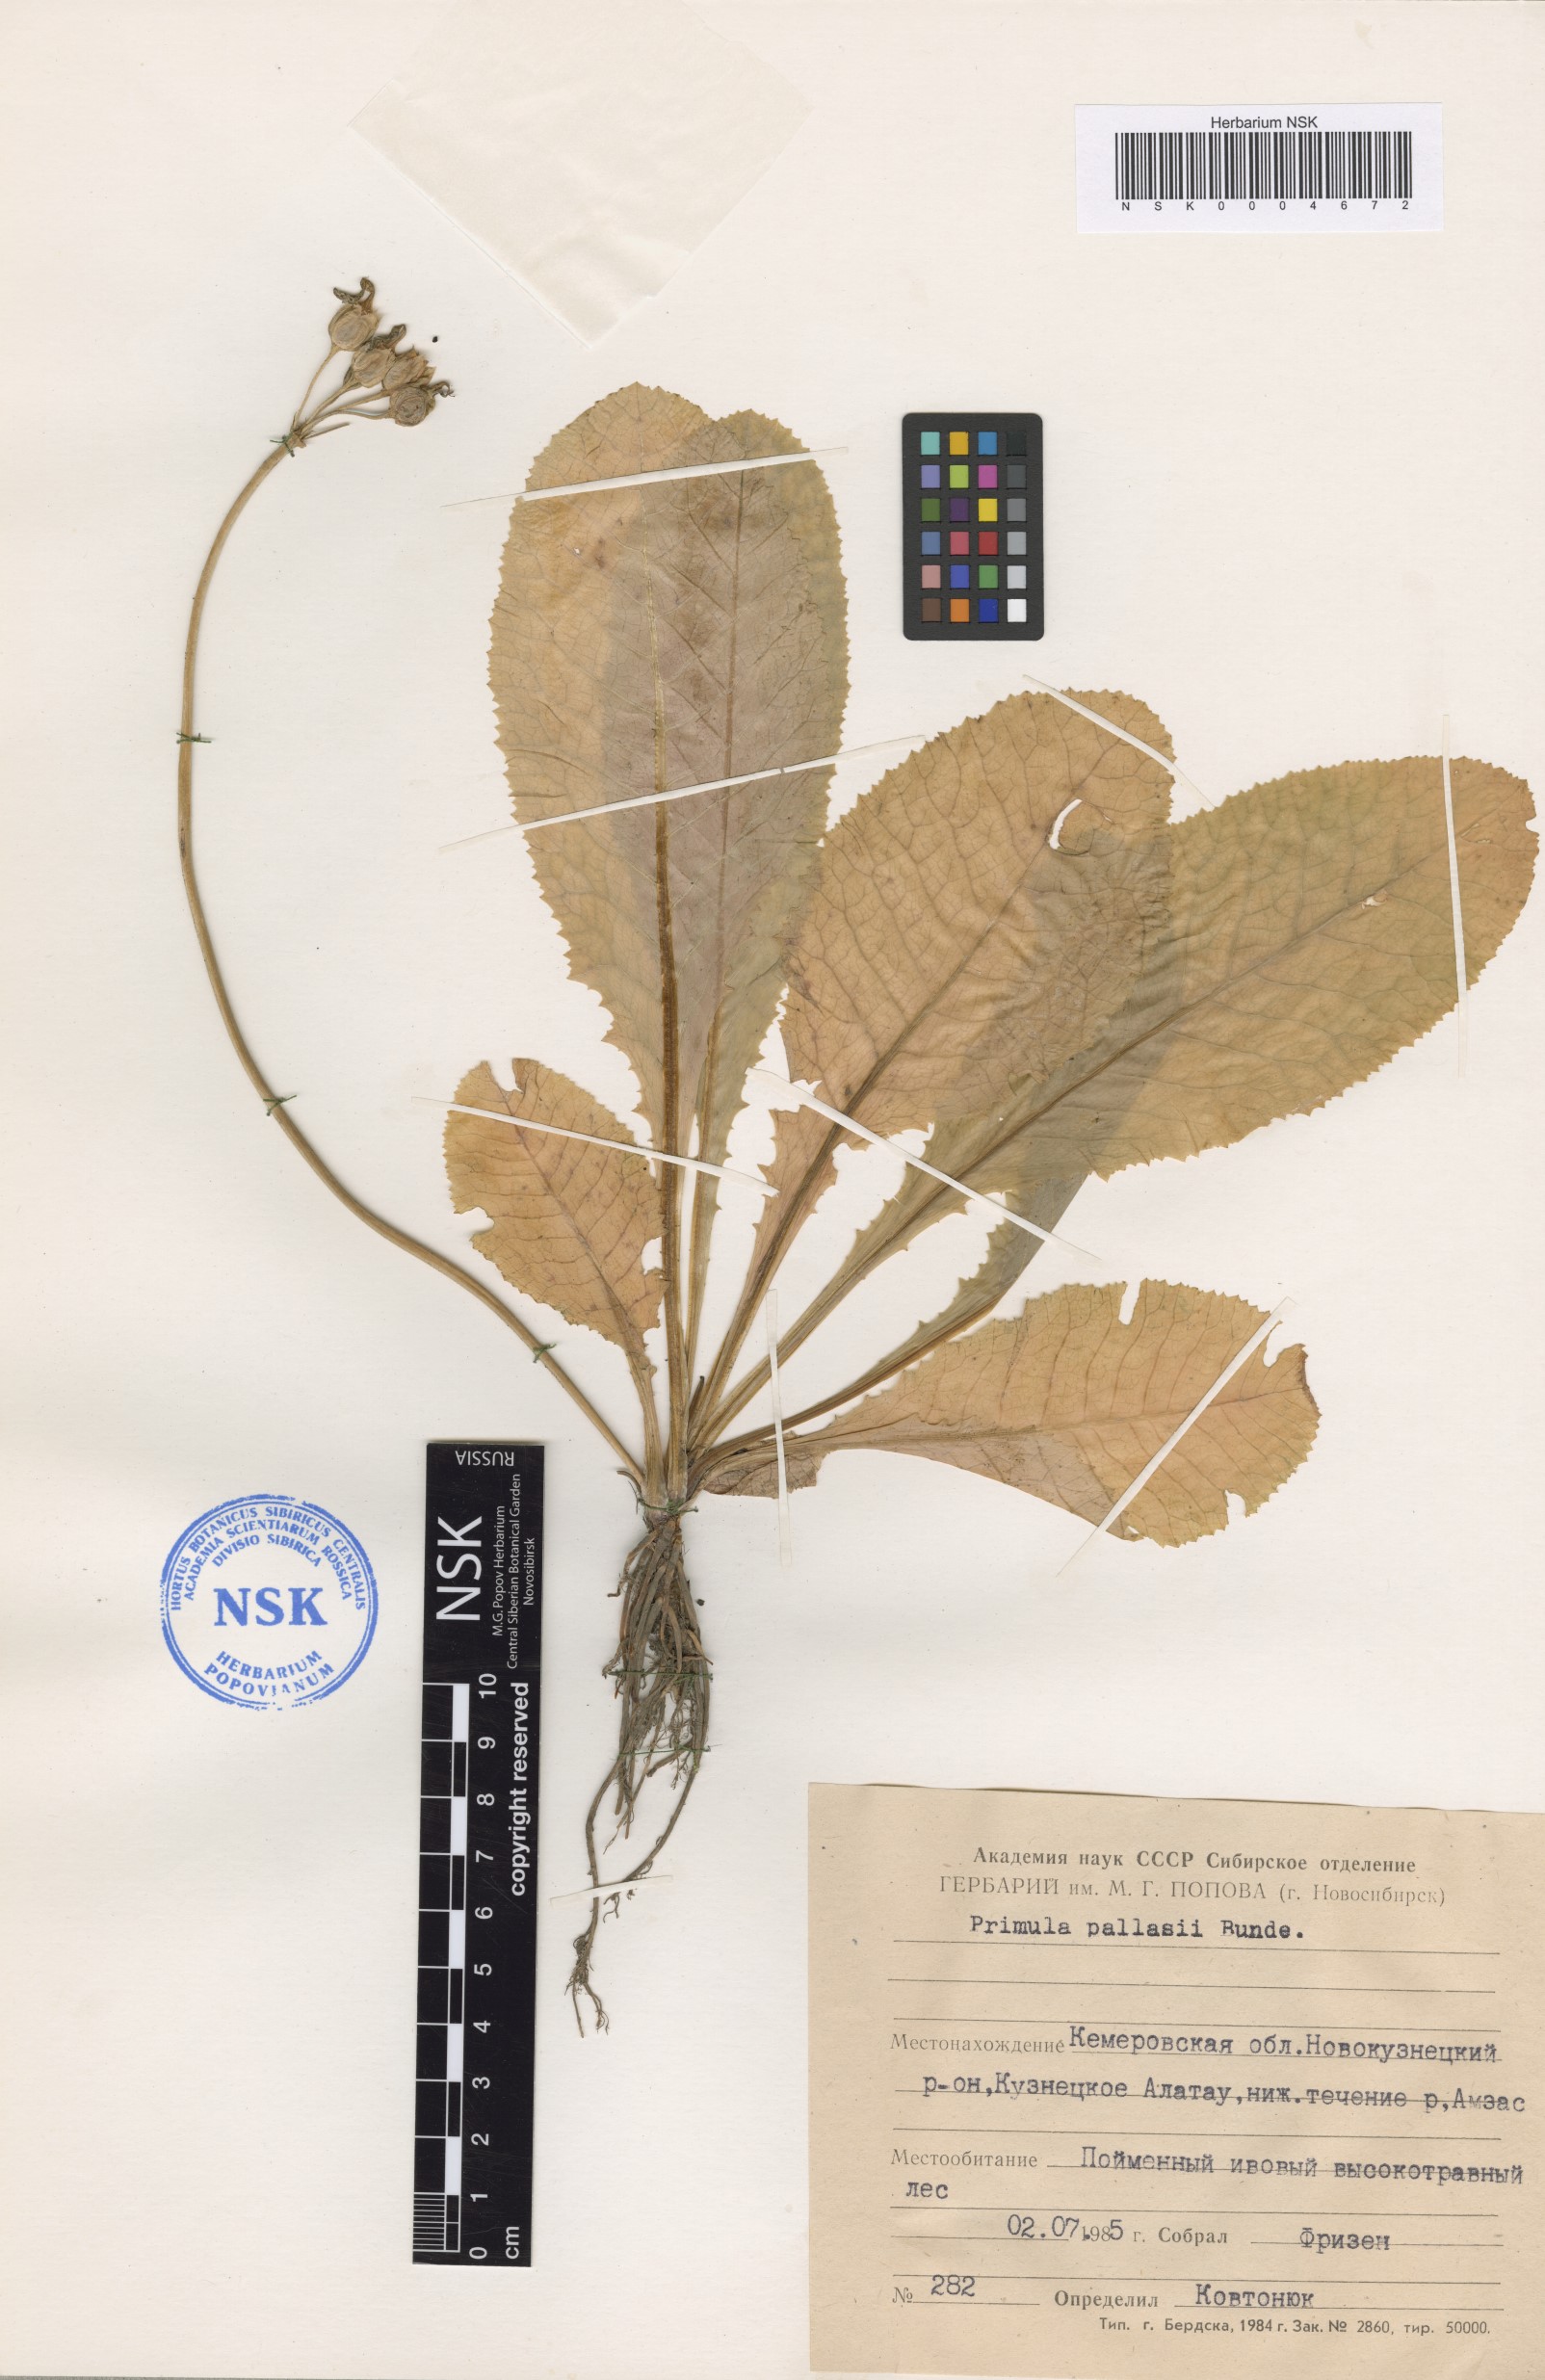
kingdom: Plantae
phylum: Tracheophyta
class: Magnoliopsida
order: Ericales
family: Primulaceae
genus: Primula
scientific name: Primula elatior
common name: Oxlip
